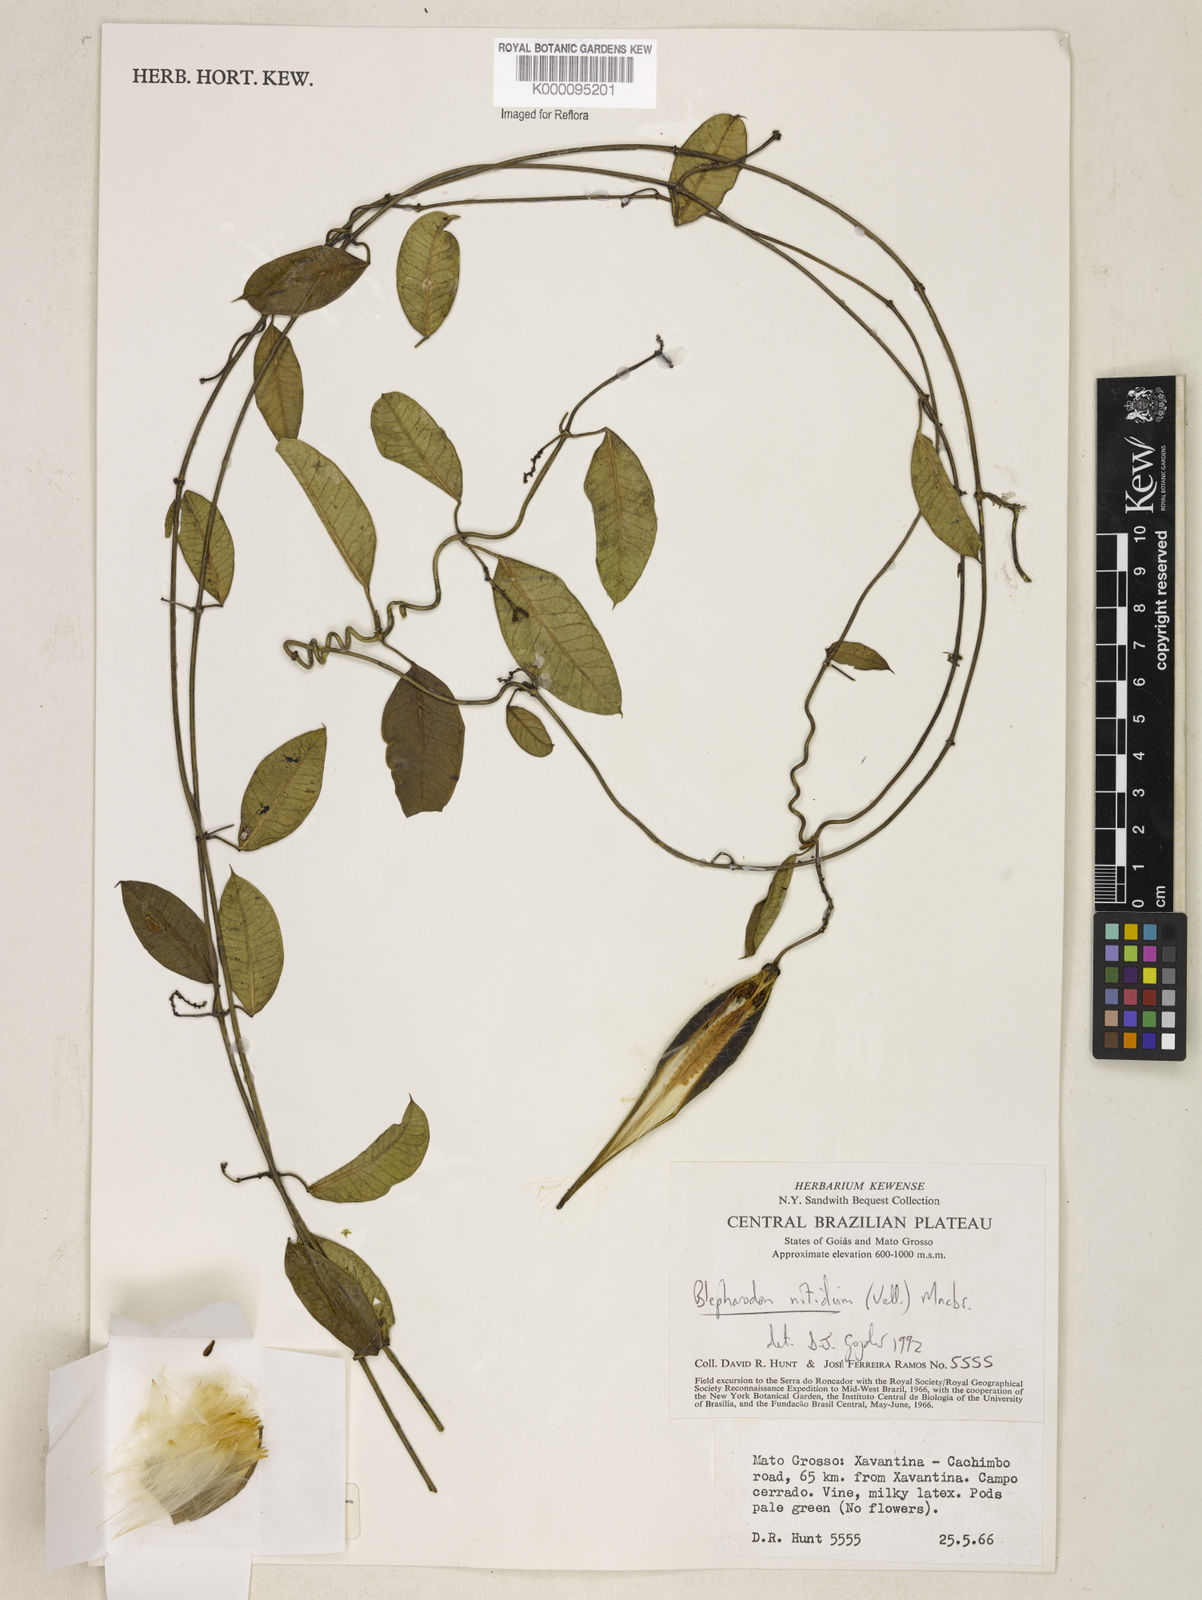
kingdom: Plantae
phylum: Tracheophyta
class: Magnoliopsida
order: Gentianales
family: Apocynaceae
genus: Blepharodon
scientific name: Blepharodon pictum
